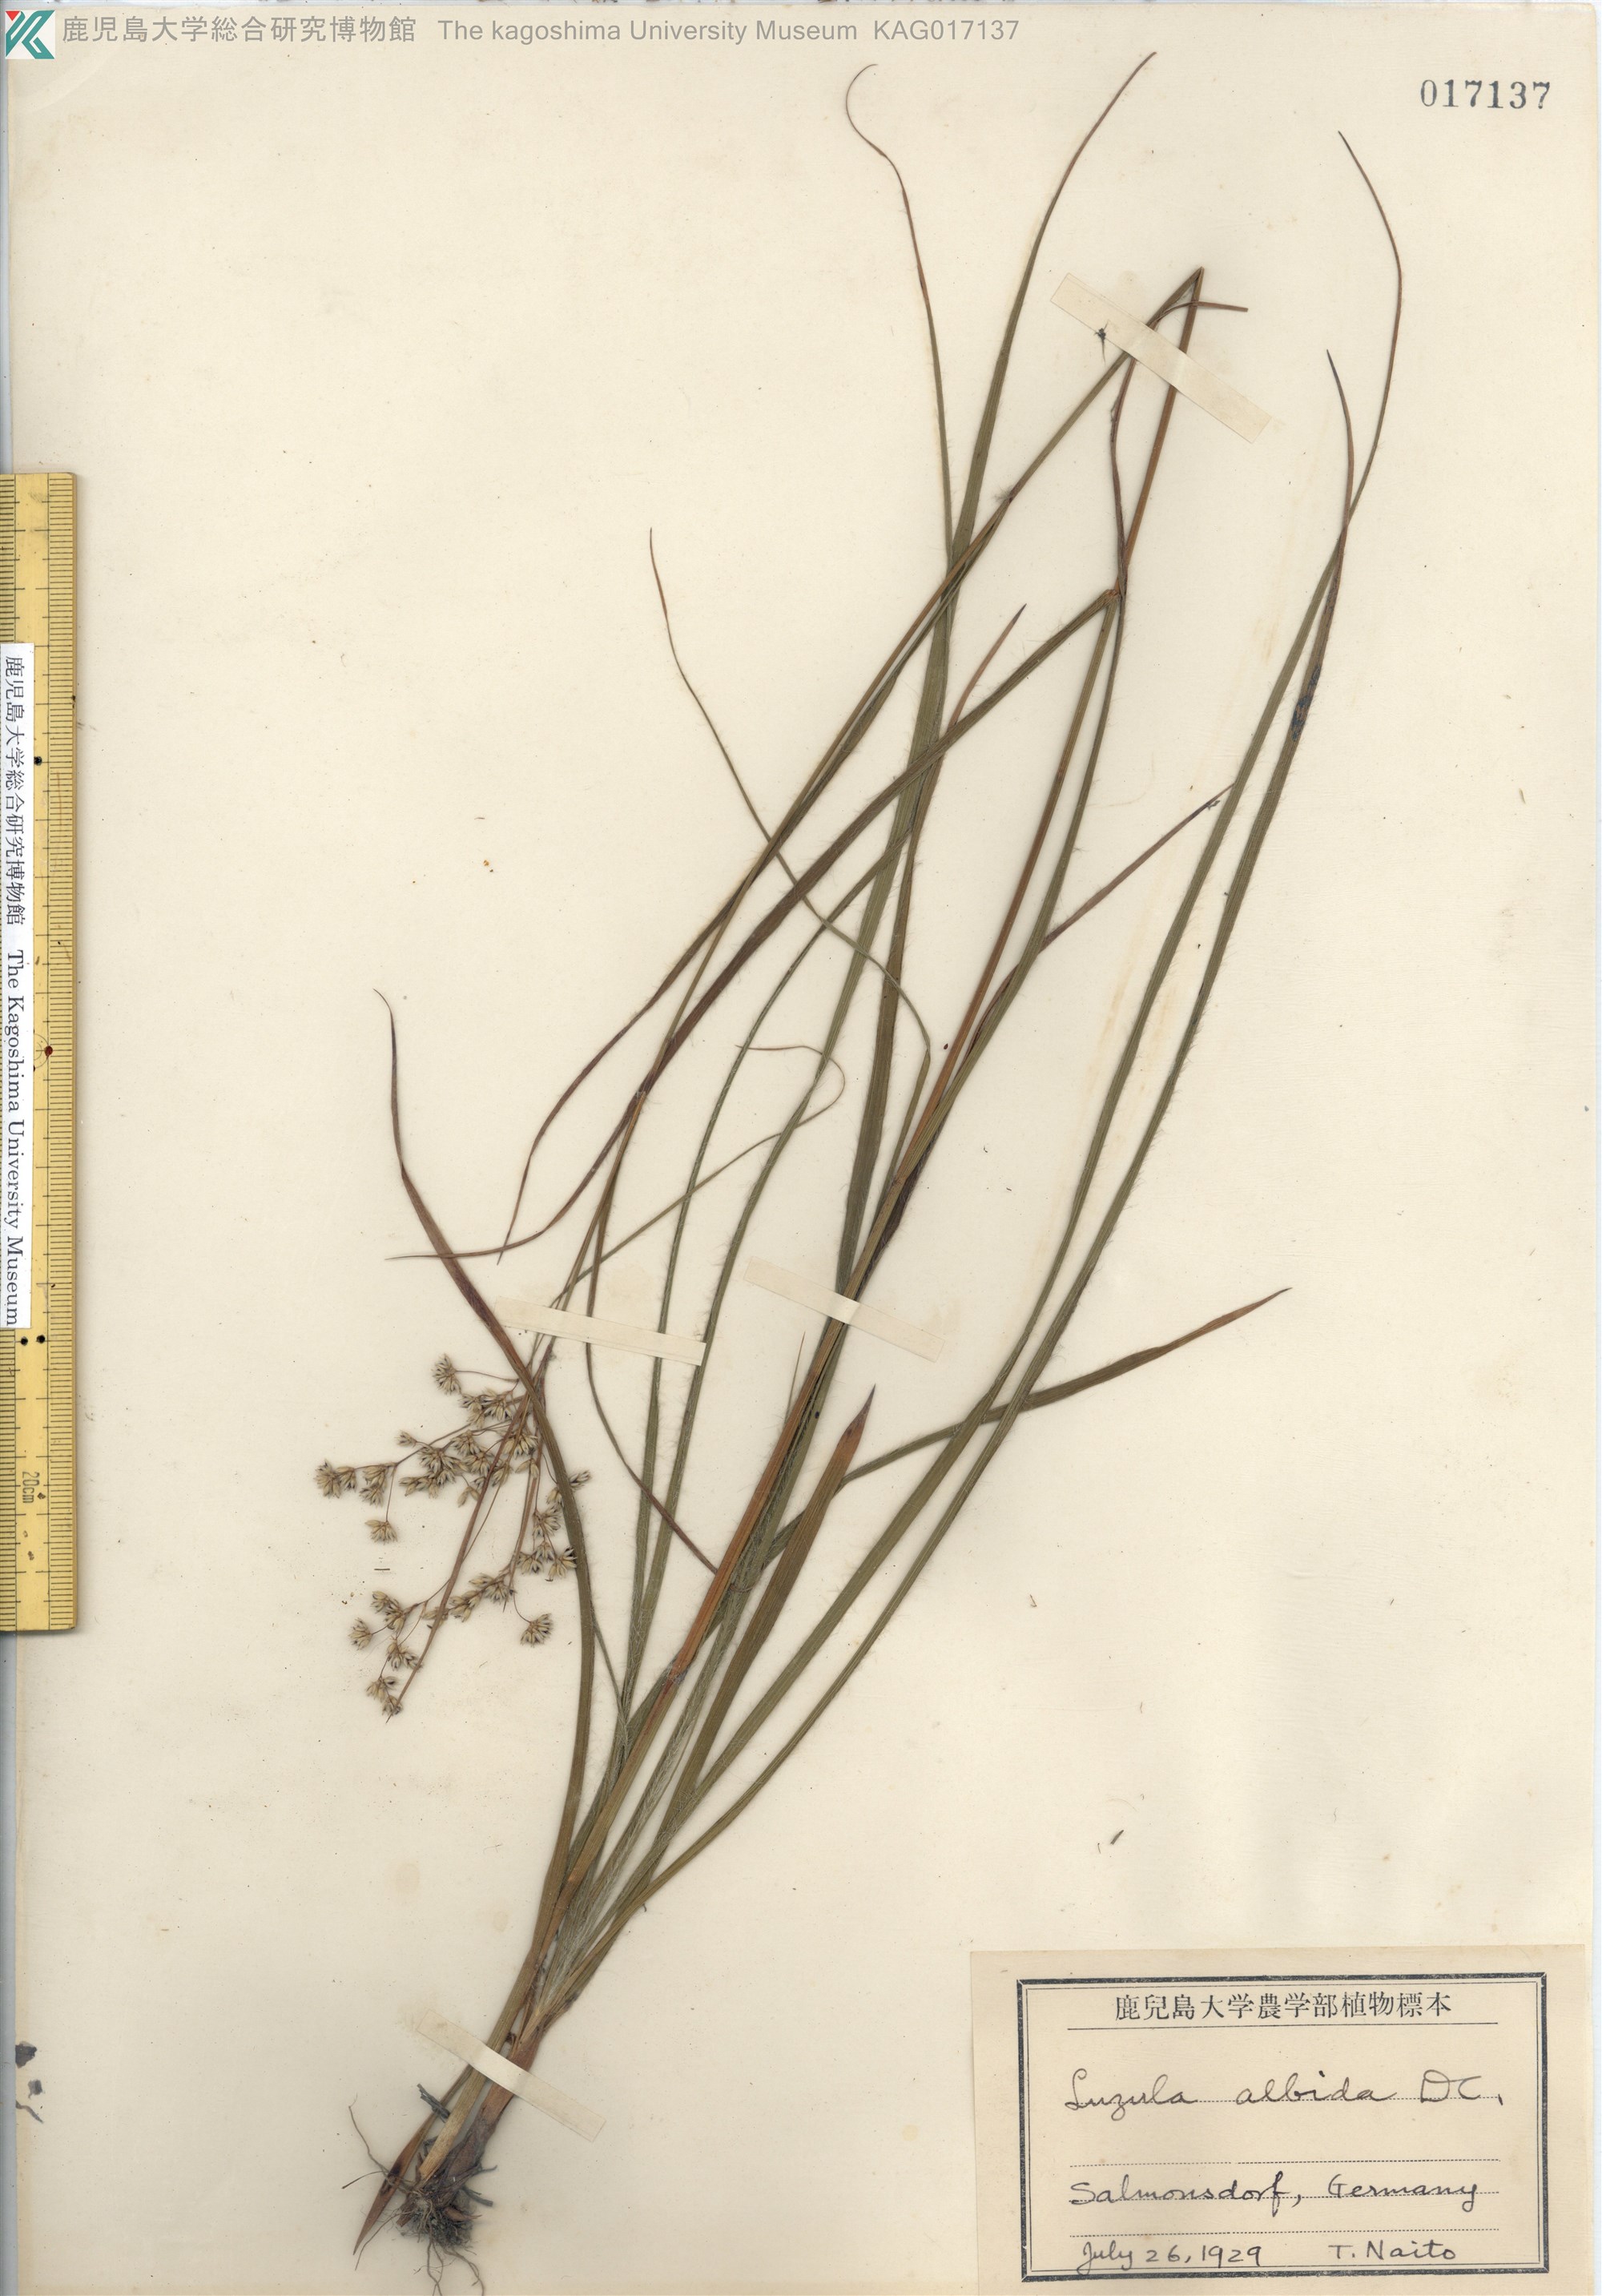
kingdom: Plantae
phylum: Tracheophyta
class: Liliopsida
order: Poales
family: Juncaceae
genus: Luzula
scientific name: Luzula luzuloides
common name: White wood-rush
